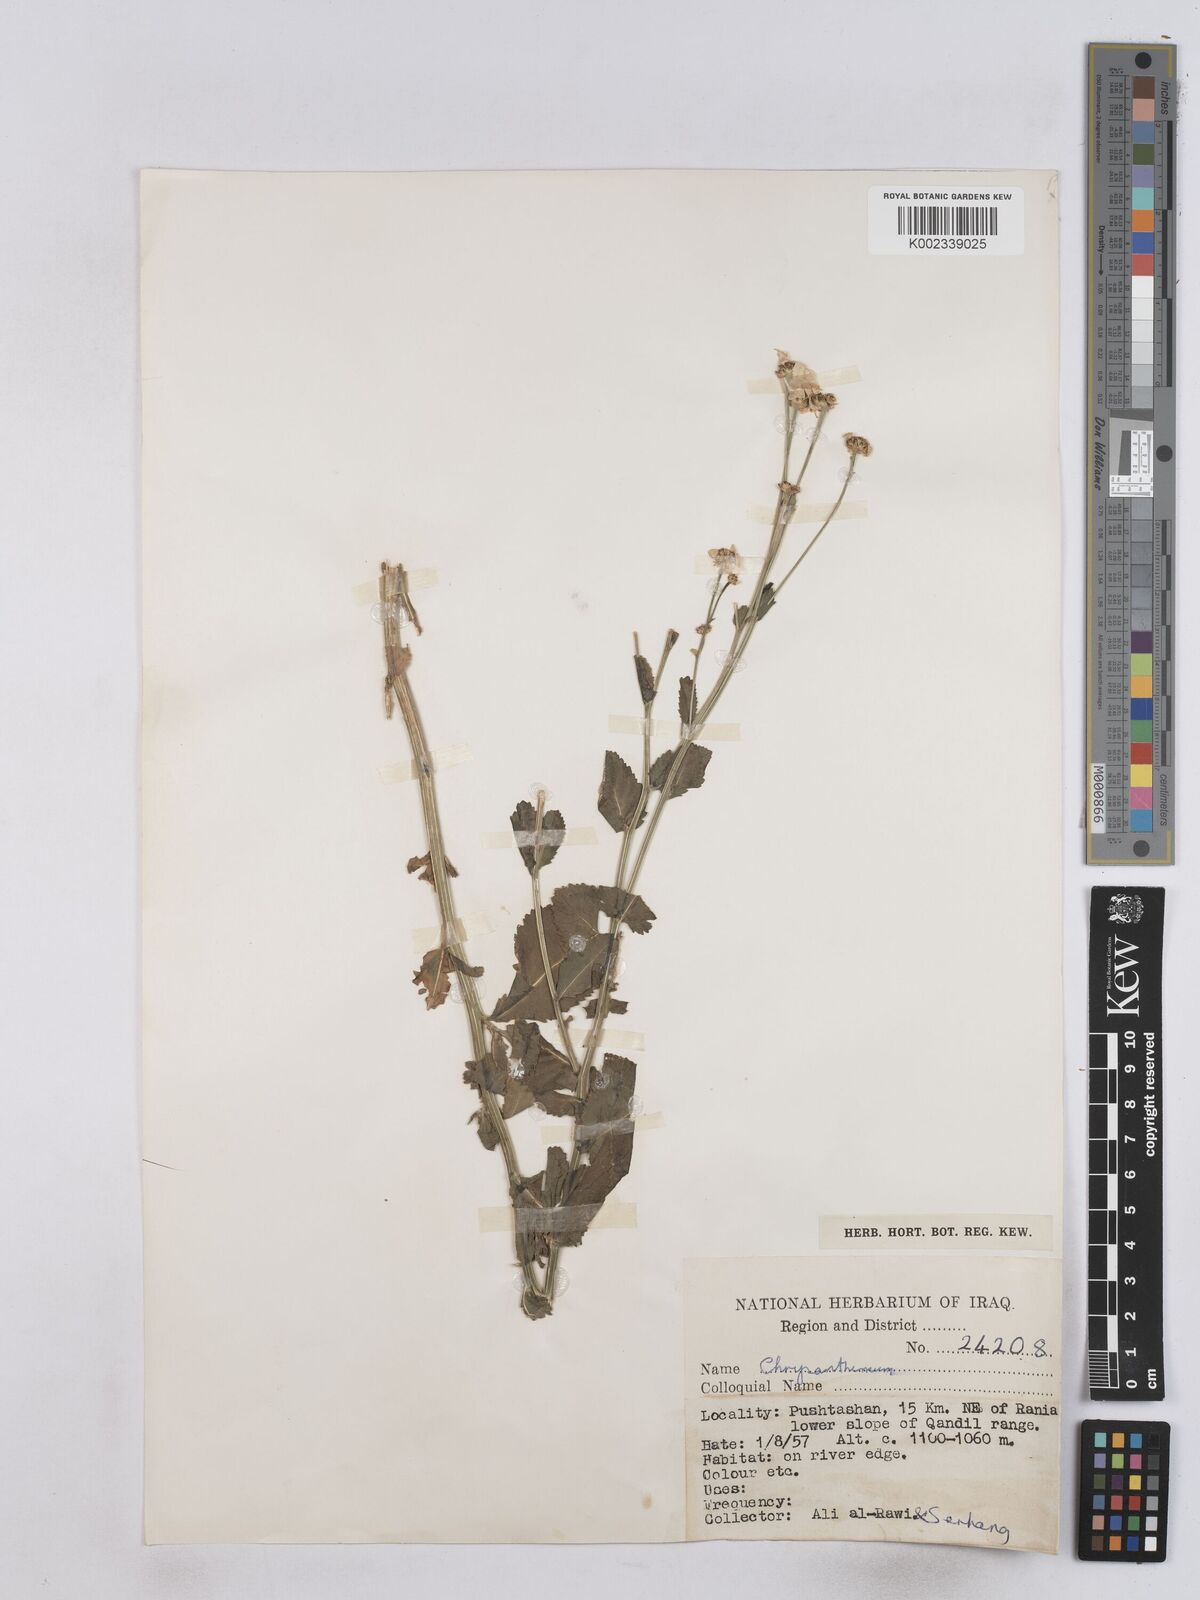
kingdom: Plantae
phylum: Tracheophyta
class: Magnoliopsida
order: Asterales
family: Asteraceae
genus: Tanacetum
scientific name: Tanacetum balsamitoides
